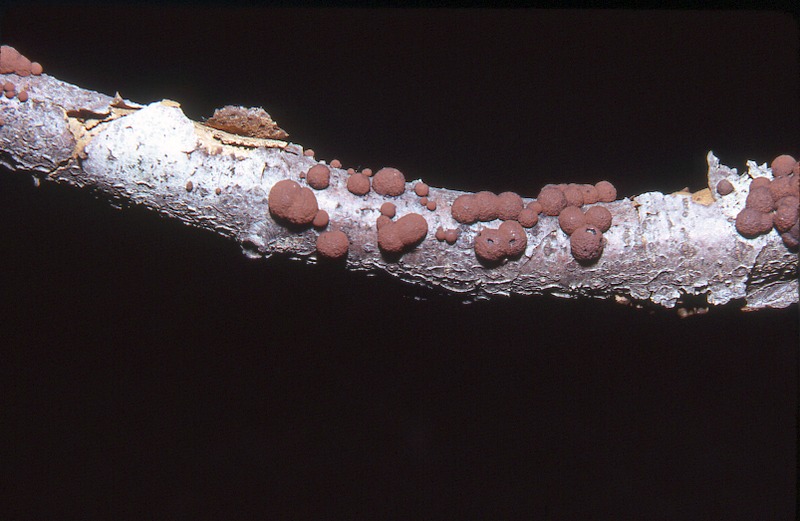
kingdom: Fungi
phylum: Ascomycota
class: Sordariomycetes
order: Xylariales
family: Hypoxylaceae
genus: Hypoxylon
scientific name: Hypoxylon fragiforme
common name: Beech woodwart
